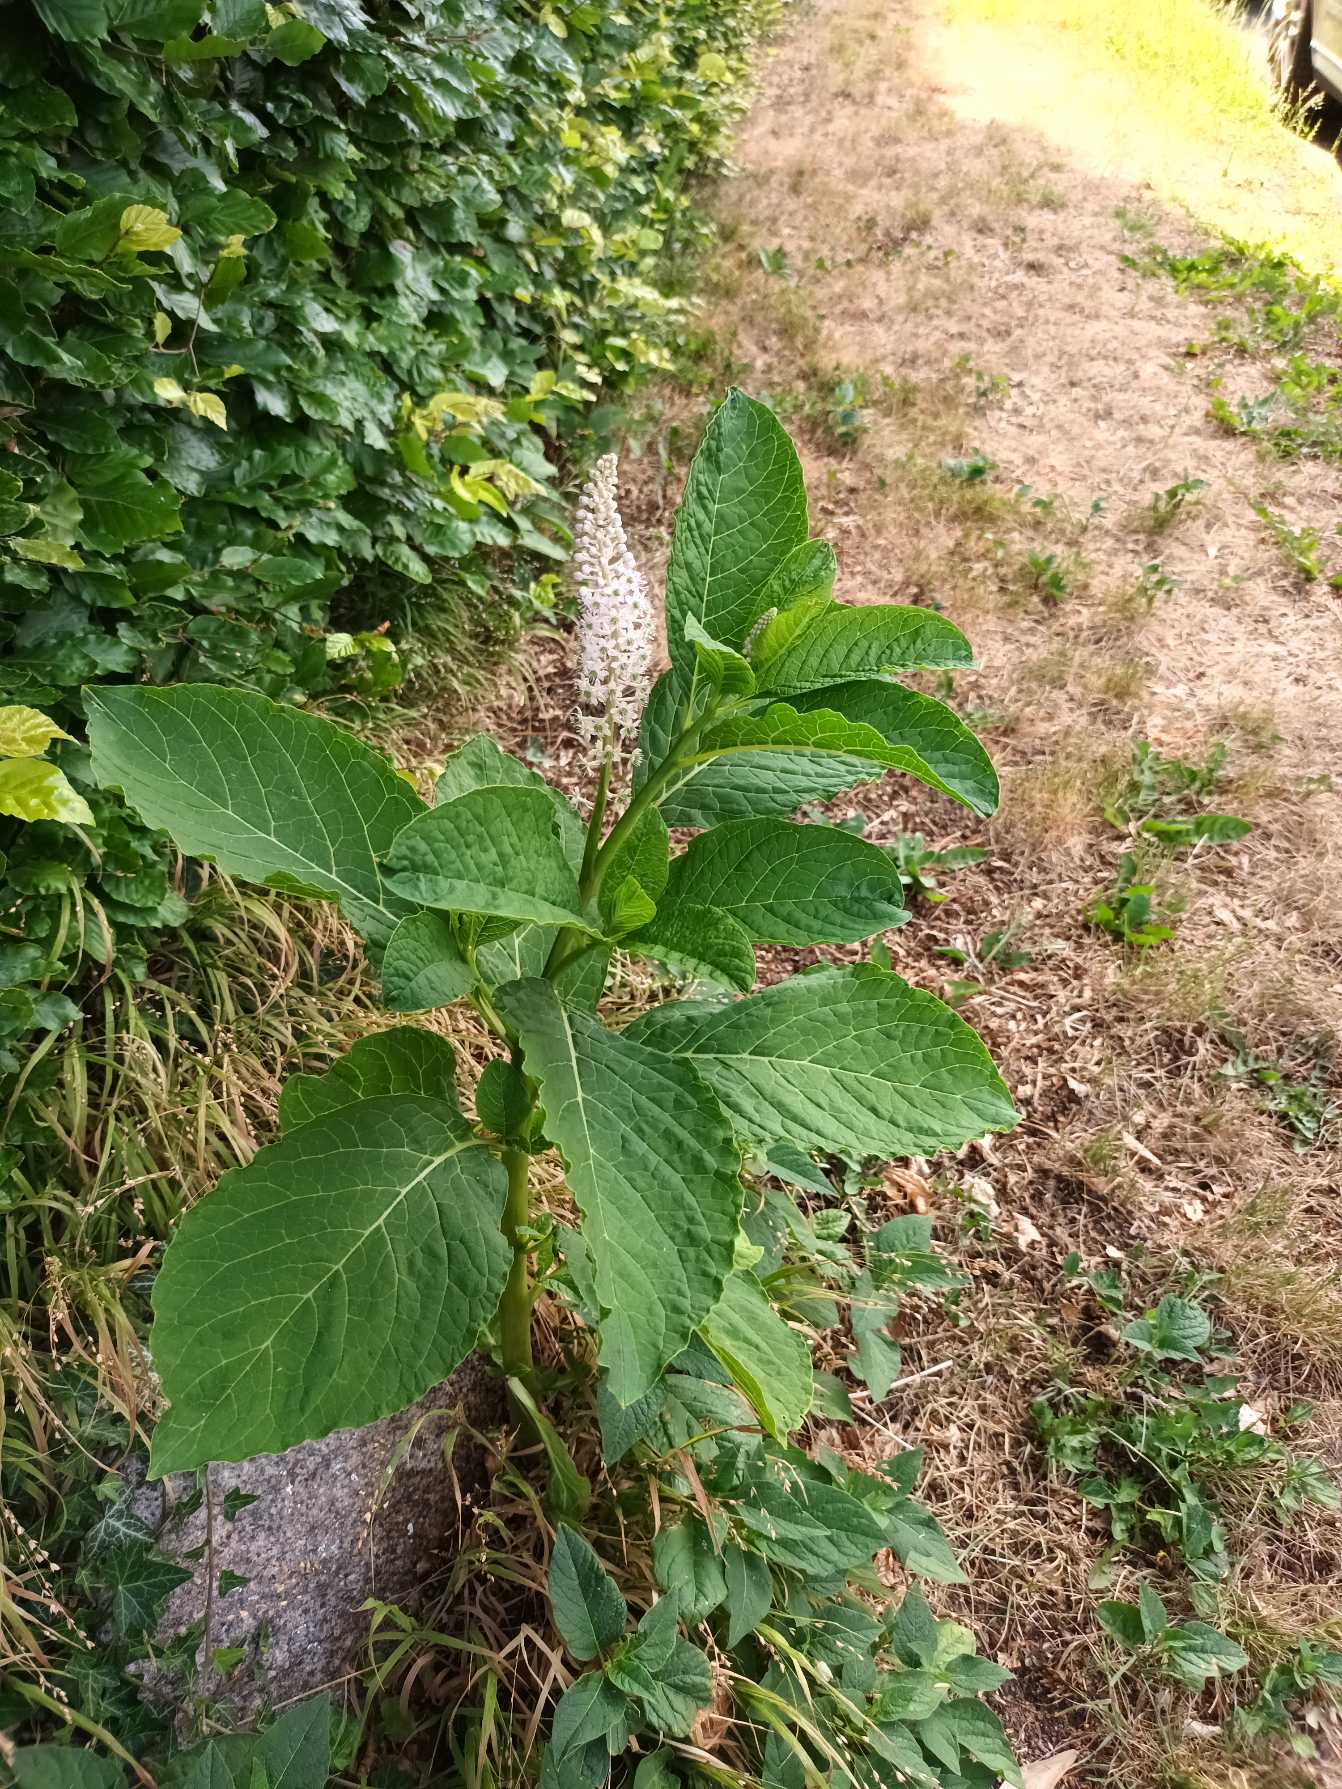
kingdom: Plantae
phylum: Tracheophyta
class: Magnoliopsida
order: Caryophyllales
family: Phytolaccaceae
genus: Phytolacca
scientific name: Phytolacca acinosa
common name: Asiatisk kermesbær
